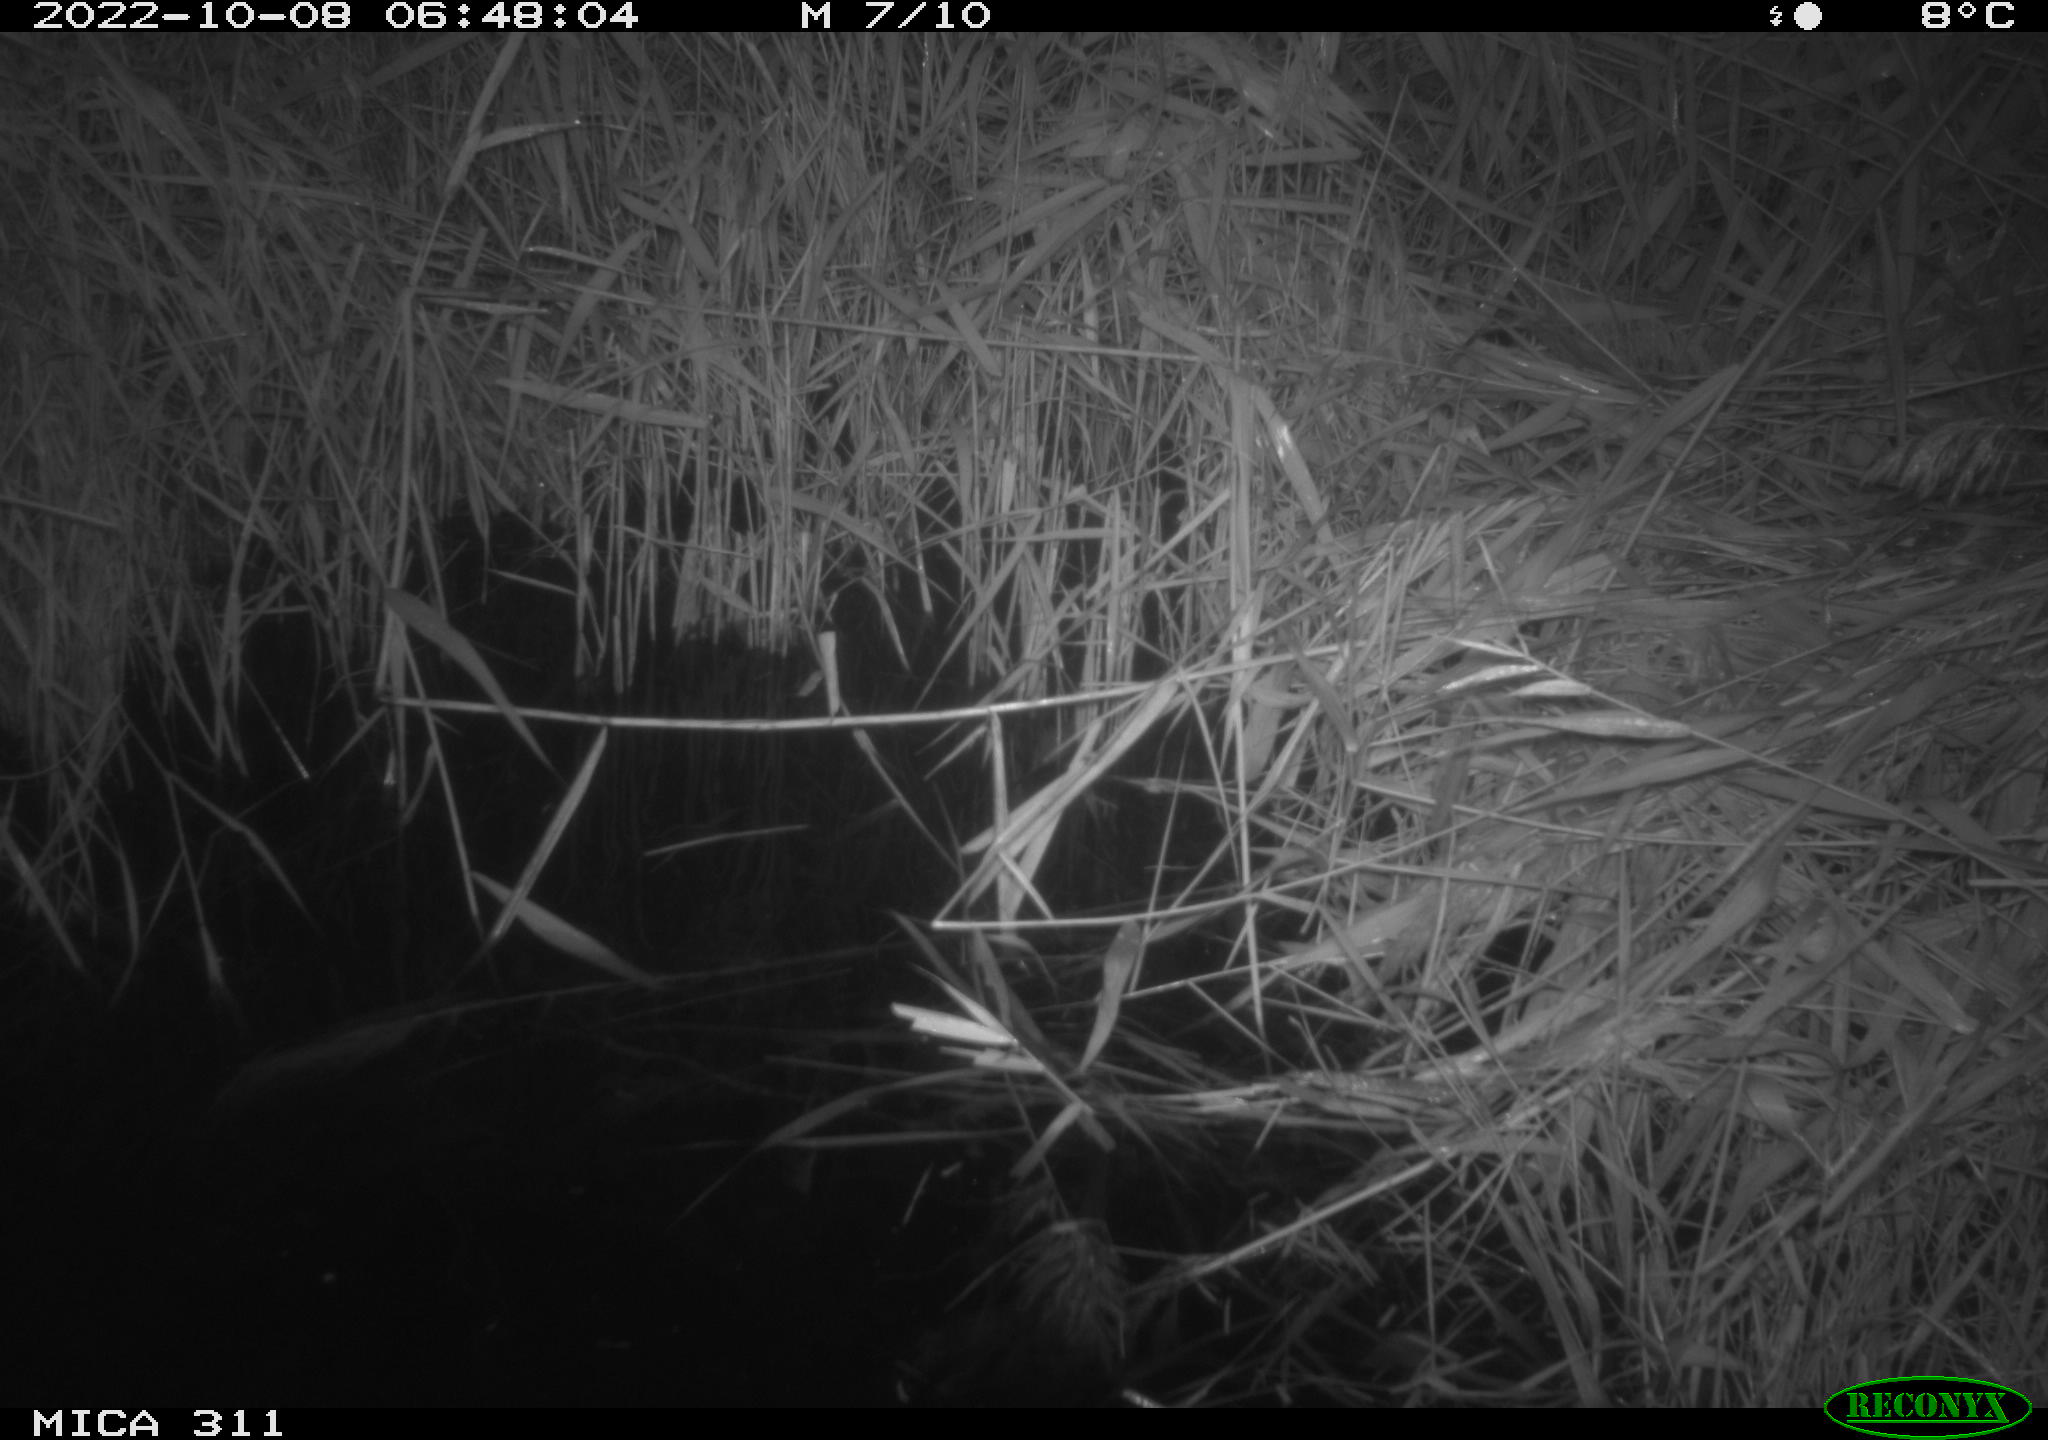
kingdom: Animalia
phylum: Chordata
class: Mammalia
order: Rodentia
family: Muridae
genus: Rattus
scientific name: Rattus norvegicus
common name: Brown rat
